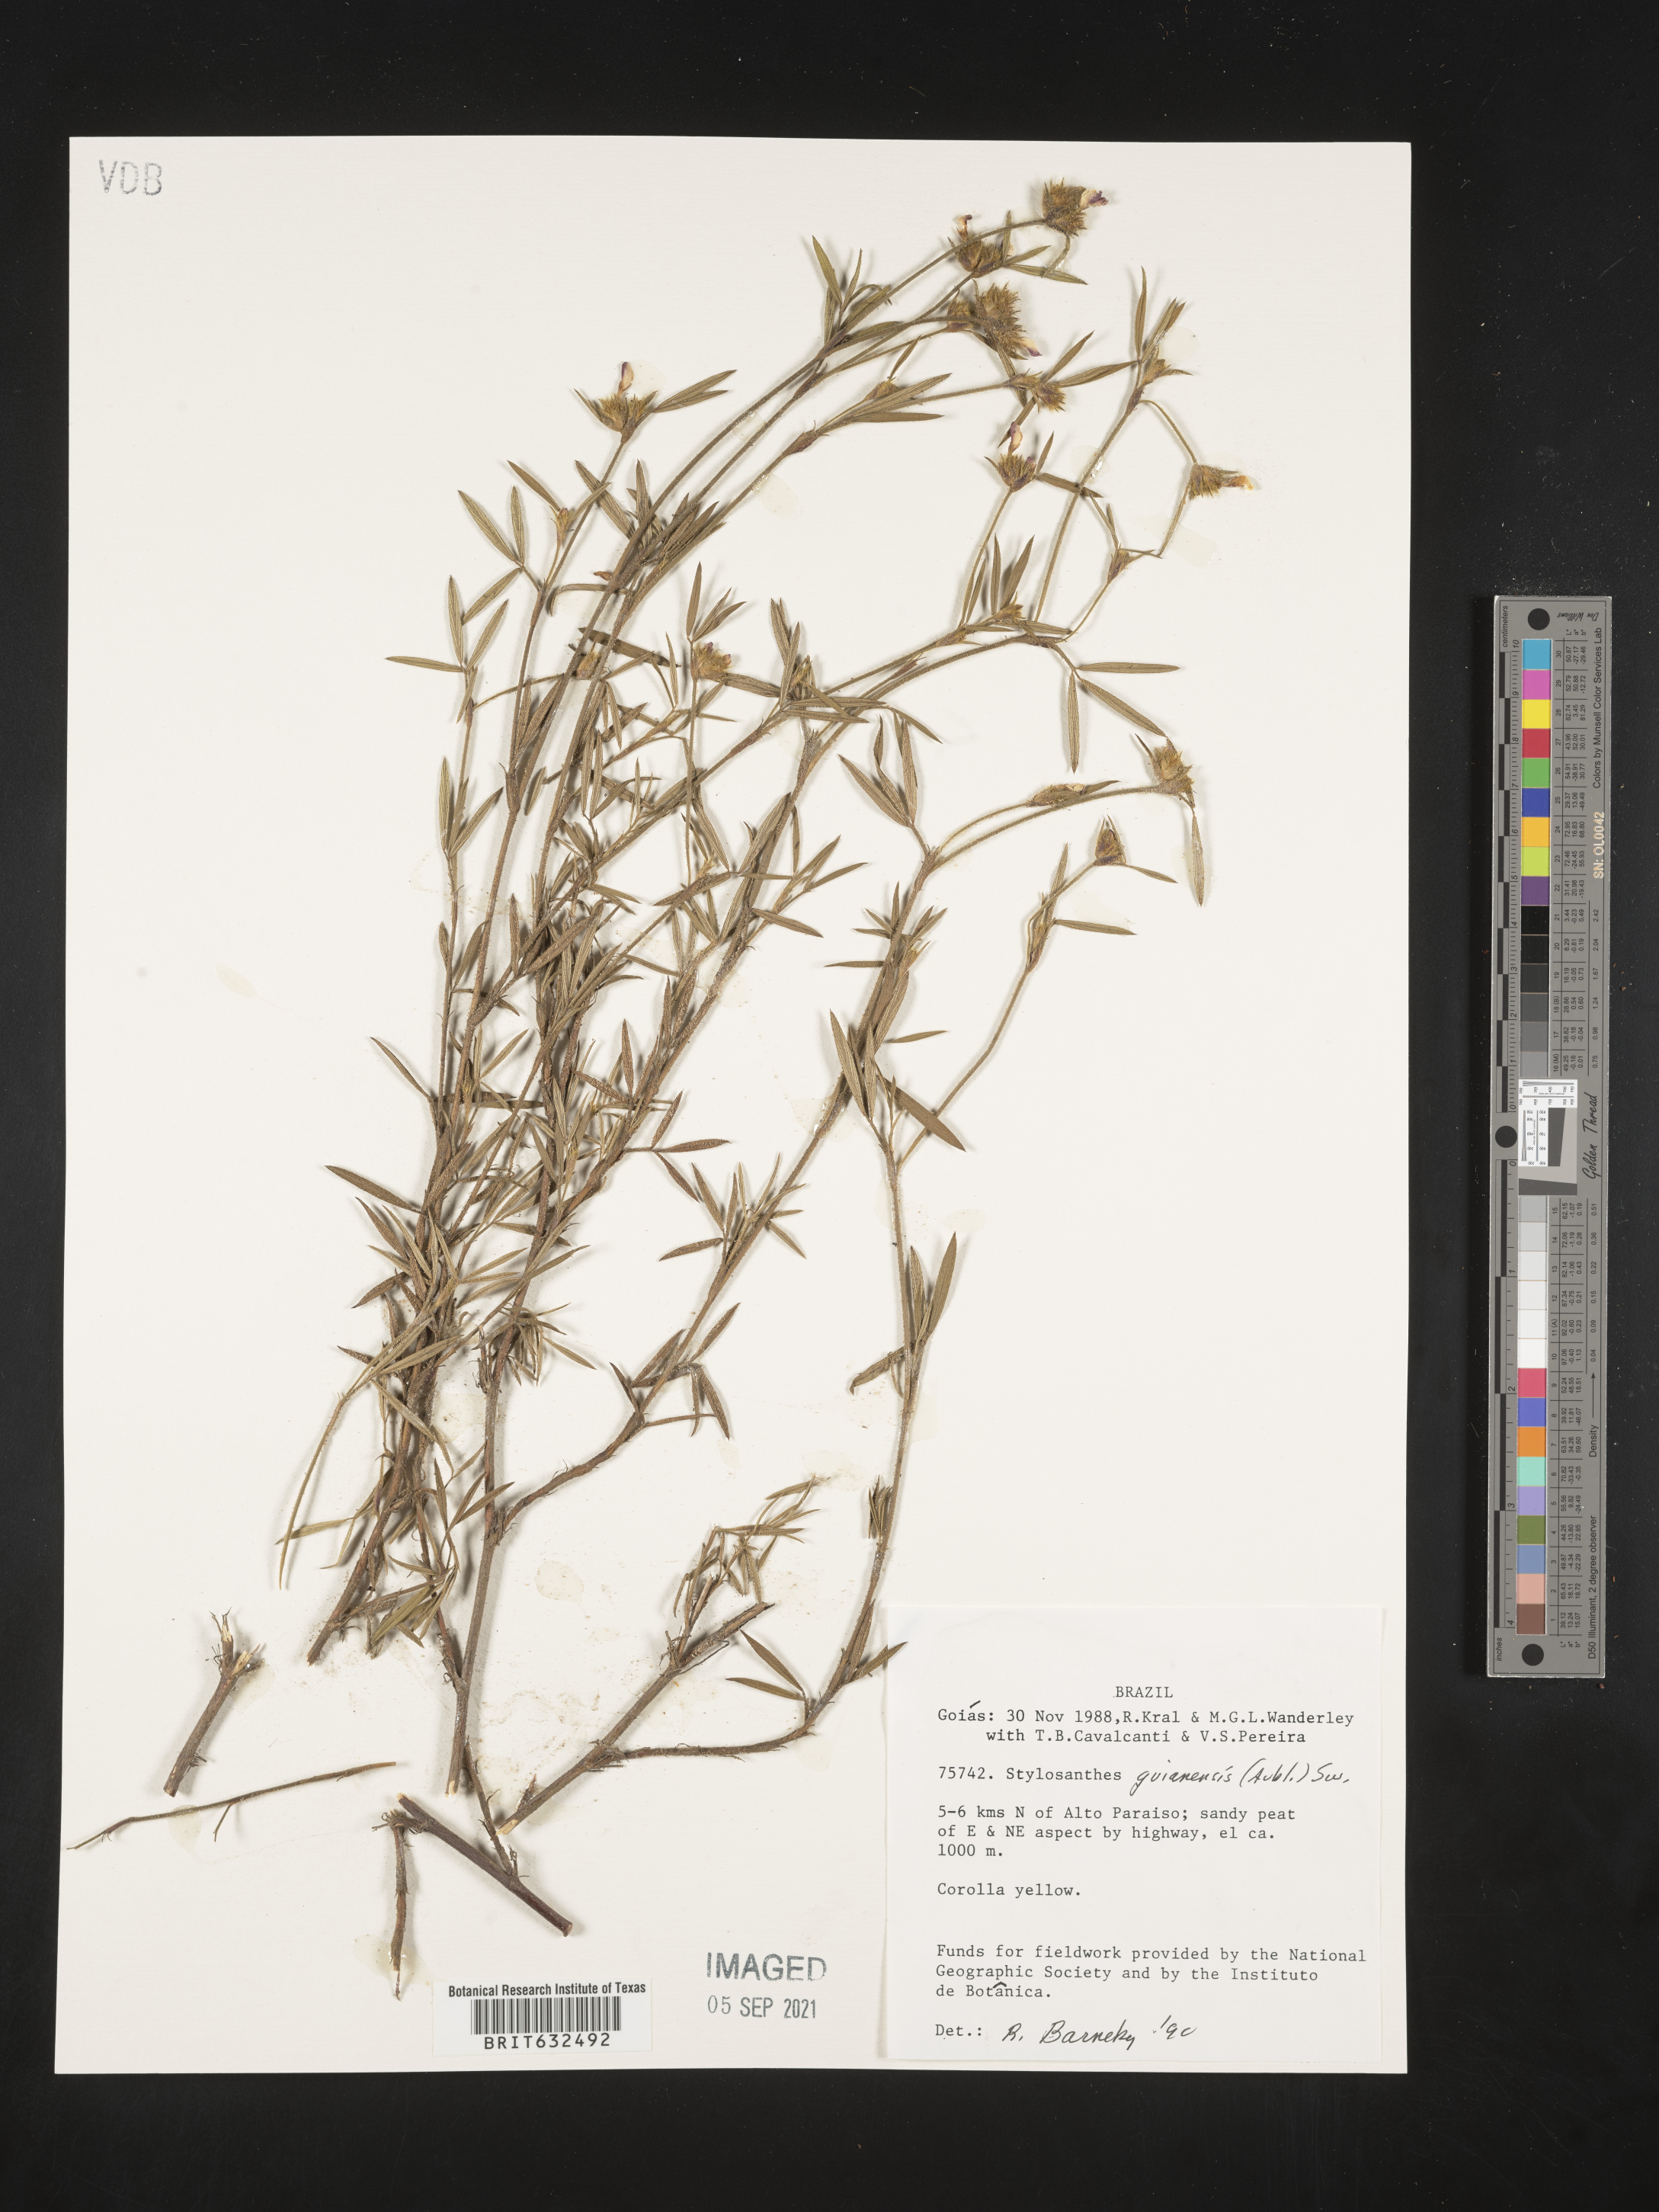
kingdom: Plantae
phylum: Tracheophyta
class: Magnoliopsida
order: Fabales
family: Fabaceae
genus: Stylosanthes
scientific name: Stylosanthes
